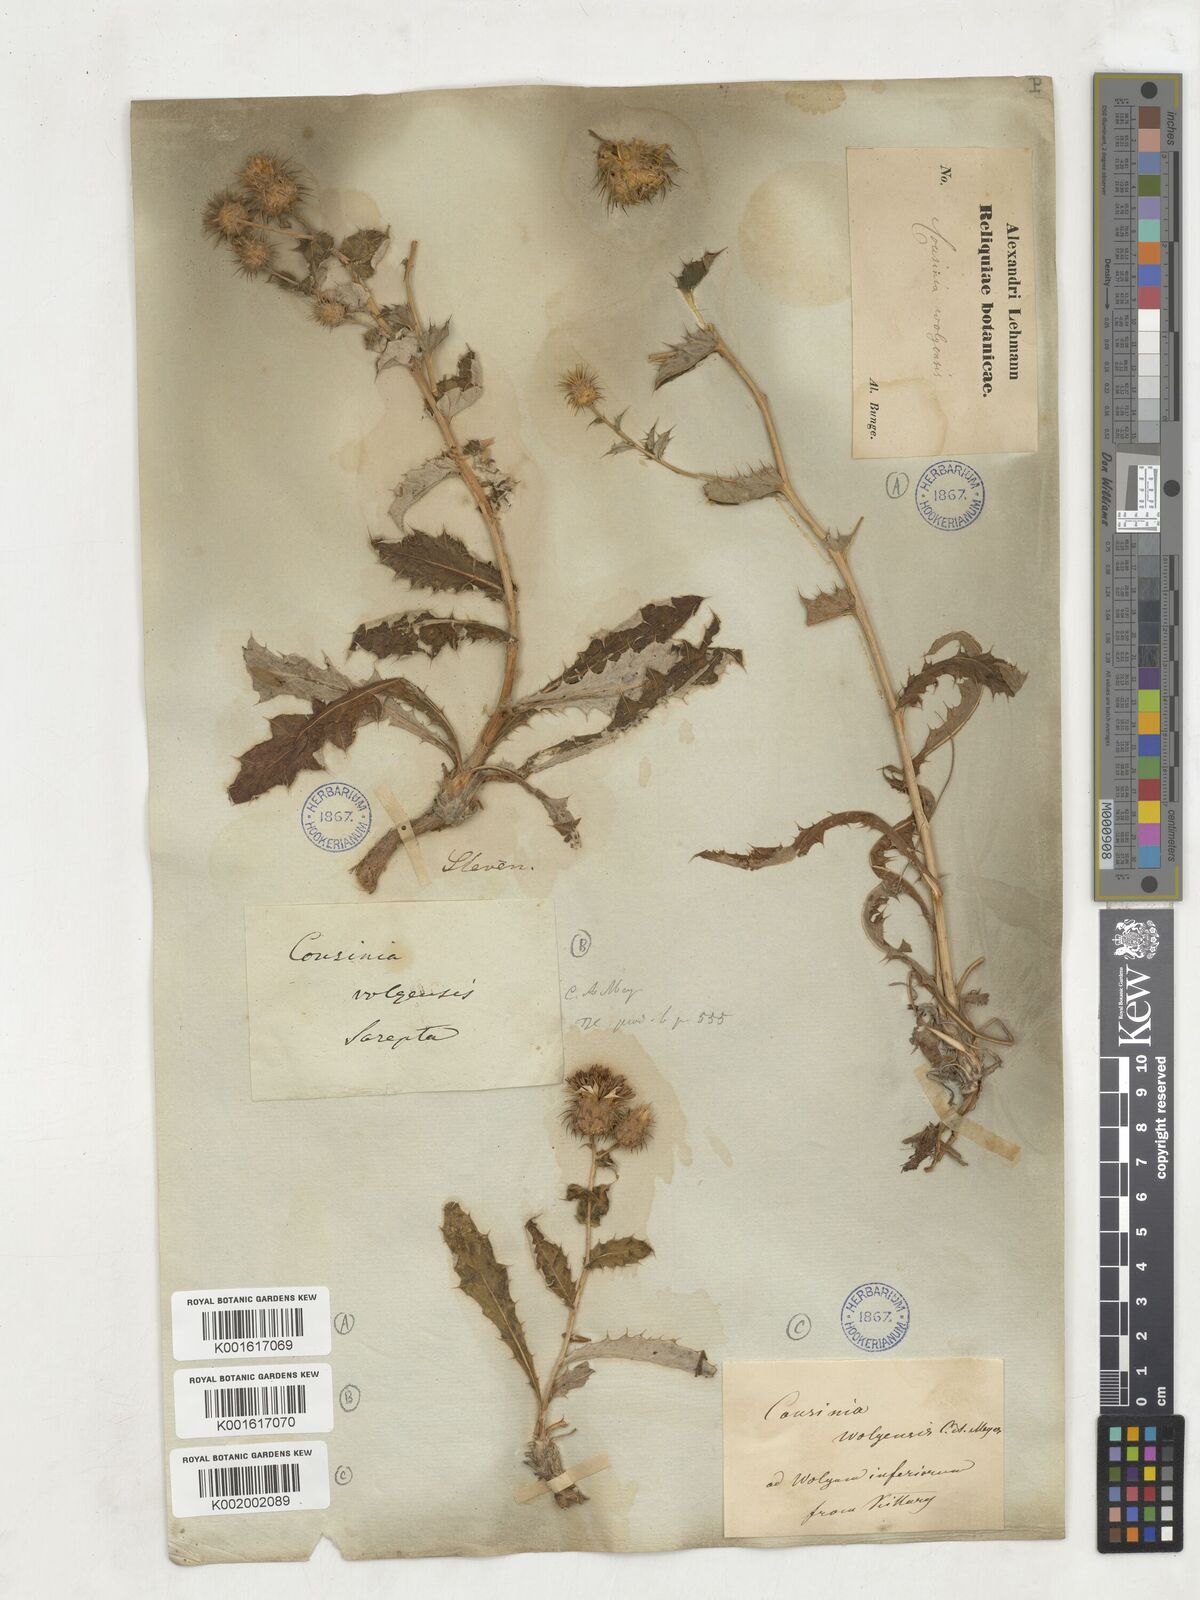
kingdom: Plantae
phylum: Tracheophyta
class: Magnoliopsida
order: Asterales
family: Asteraceae
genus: Cousinia
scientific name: Cousinia astracanica
